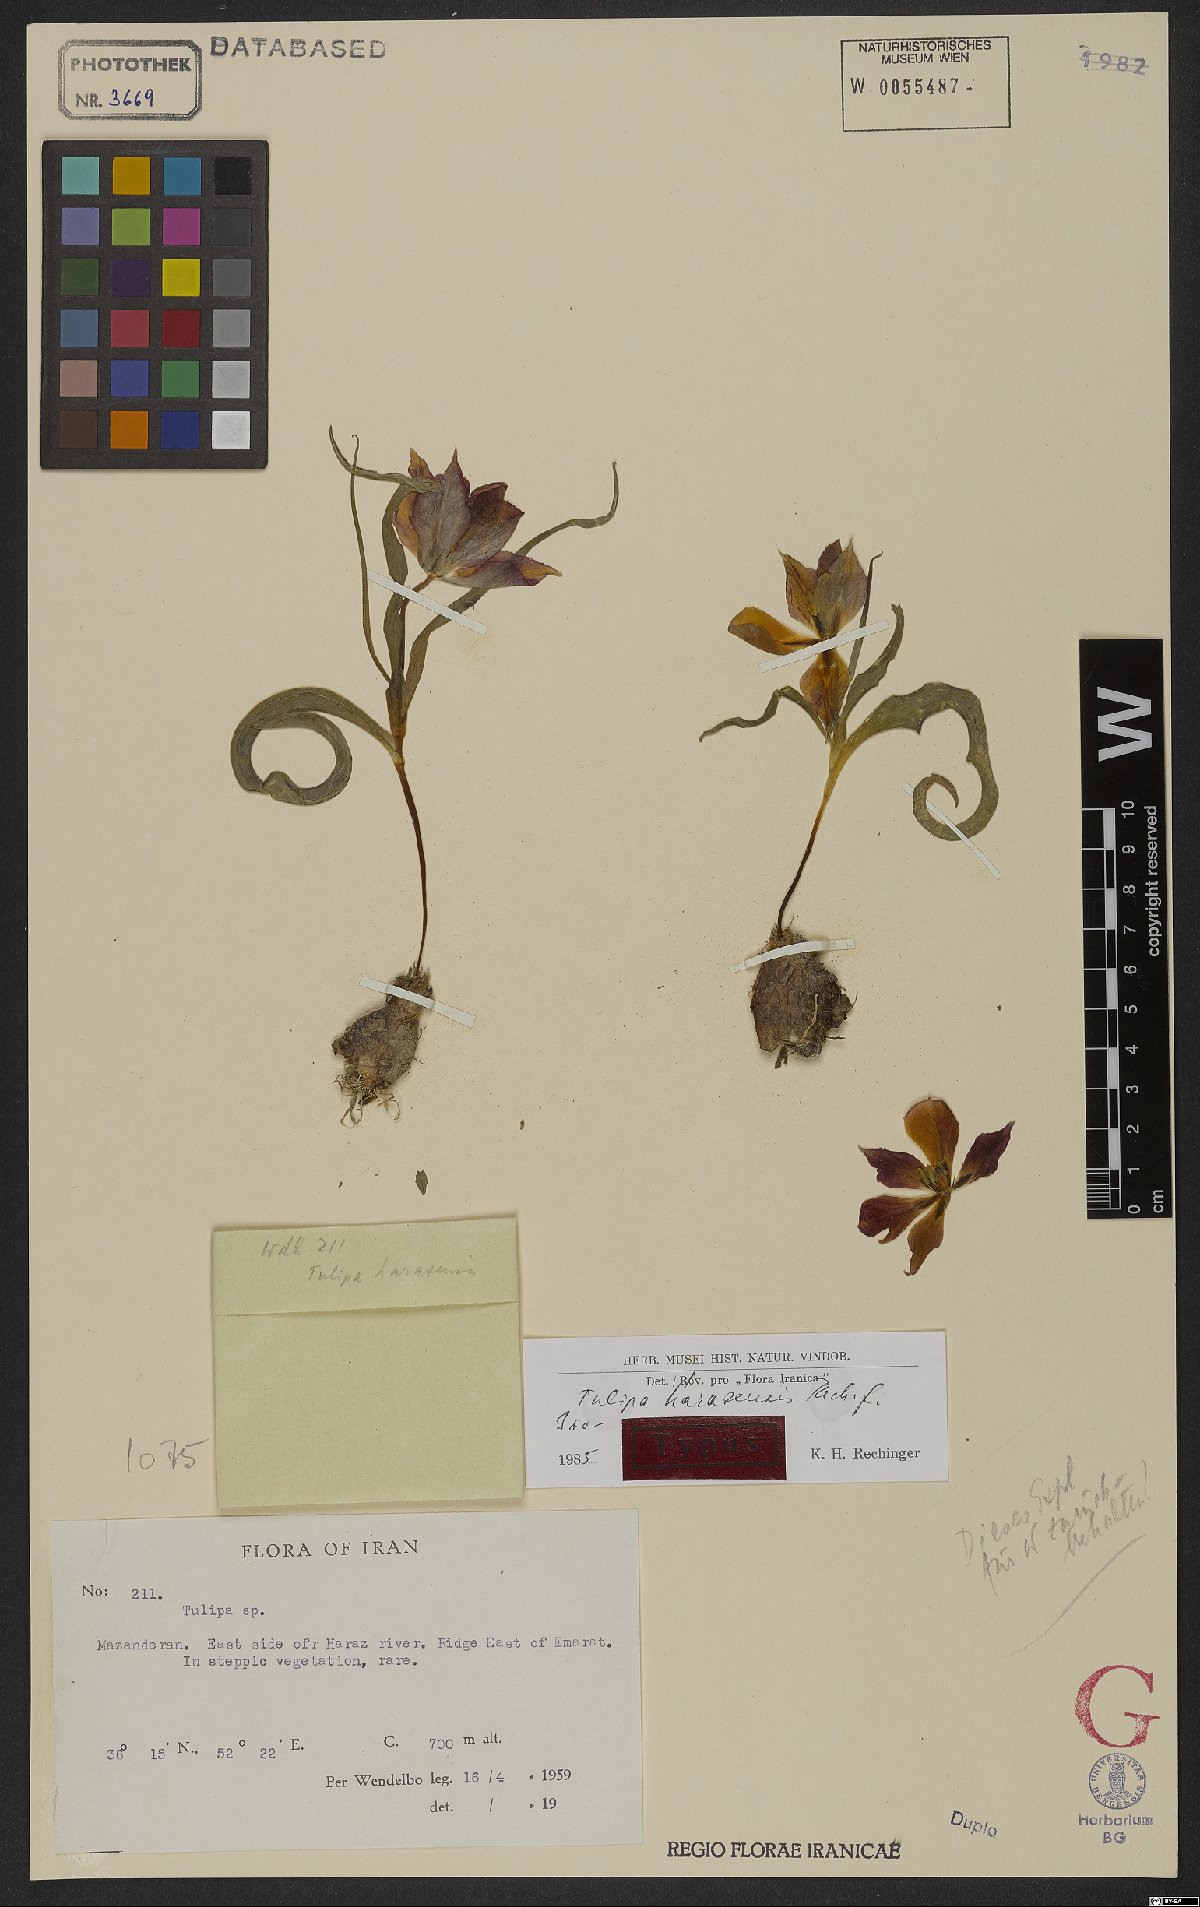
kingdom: Plantae
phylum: Tracheophyta
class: Liliopsida
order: Liliales
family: Liliaceae
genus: Tulipa
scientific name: Tulipa harazensis
